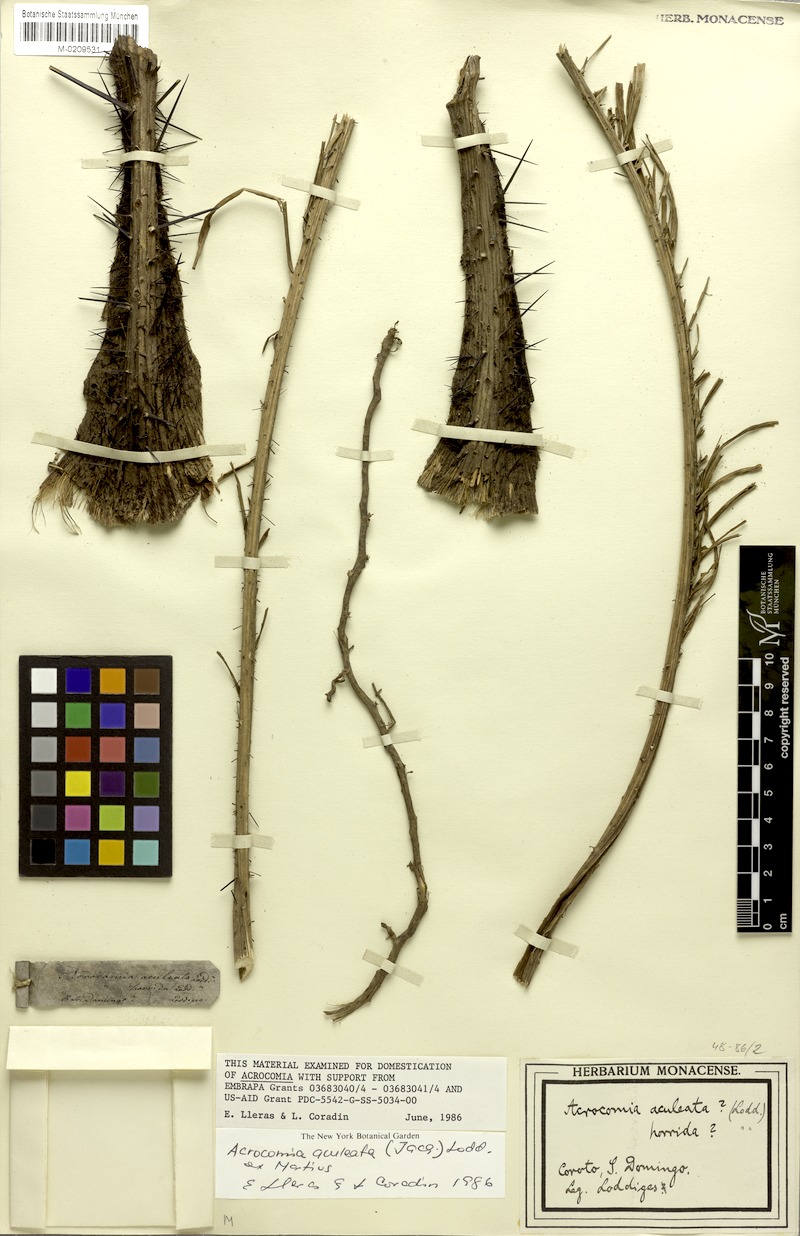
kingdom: Plantae
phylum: Tracheophyta
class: Liliopsida
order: Arecales
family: Arecaceae
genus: Acrocomia
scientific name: Acrocomia aculeata
